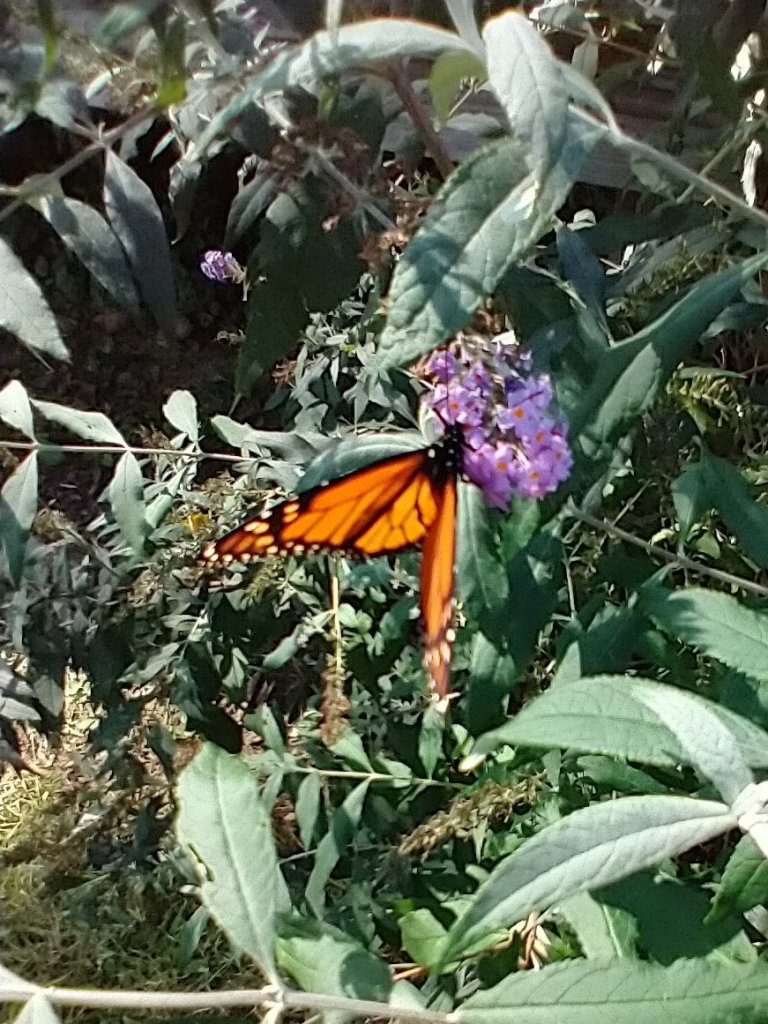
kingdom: Animalia
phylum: Arthropoda
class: Insecta
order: Lepidoptera
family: Nymphalidae
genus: Danaus
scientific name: Danaus plexippus
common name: Monarch
